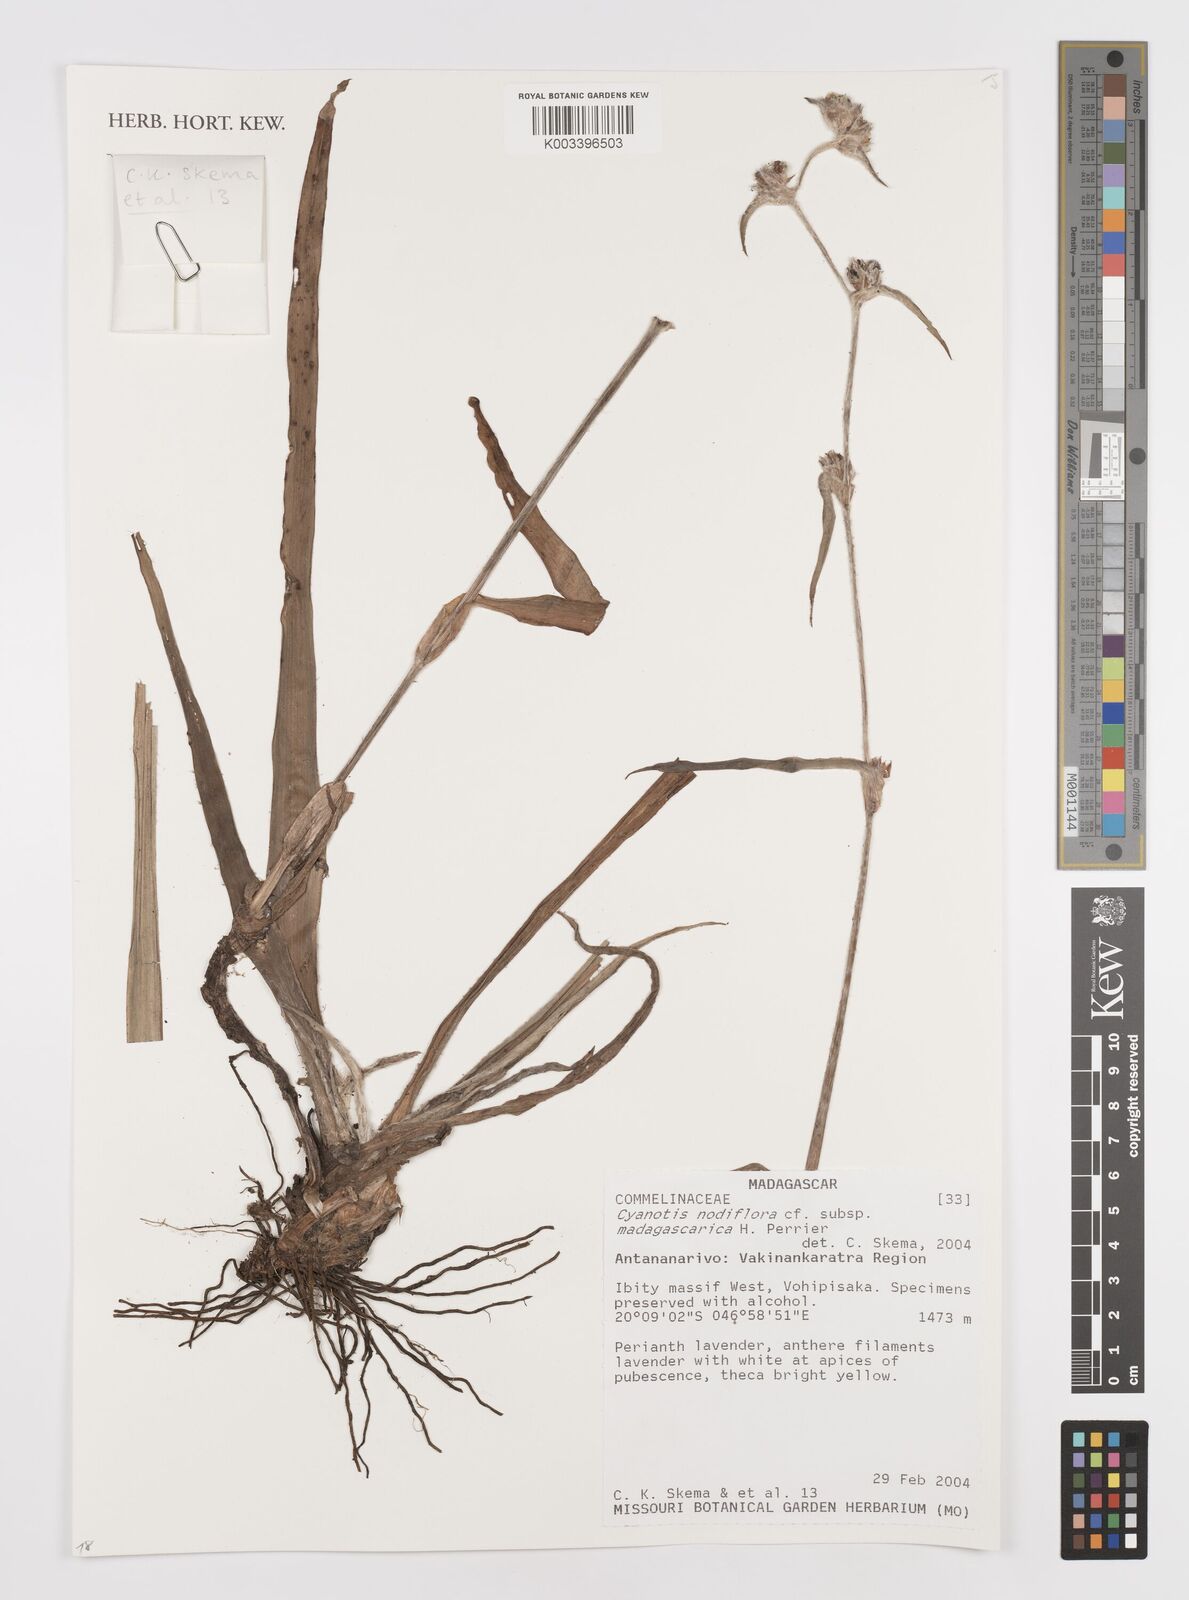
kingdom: Plantae
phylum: Tracheophyta
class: Liliopsida
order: Commelinales
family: Commelinaceae
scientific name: Commelinaceae
